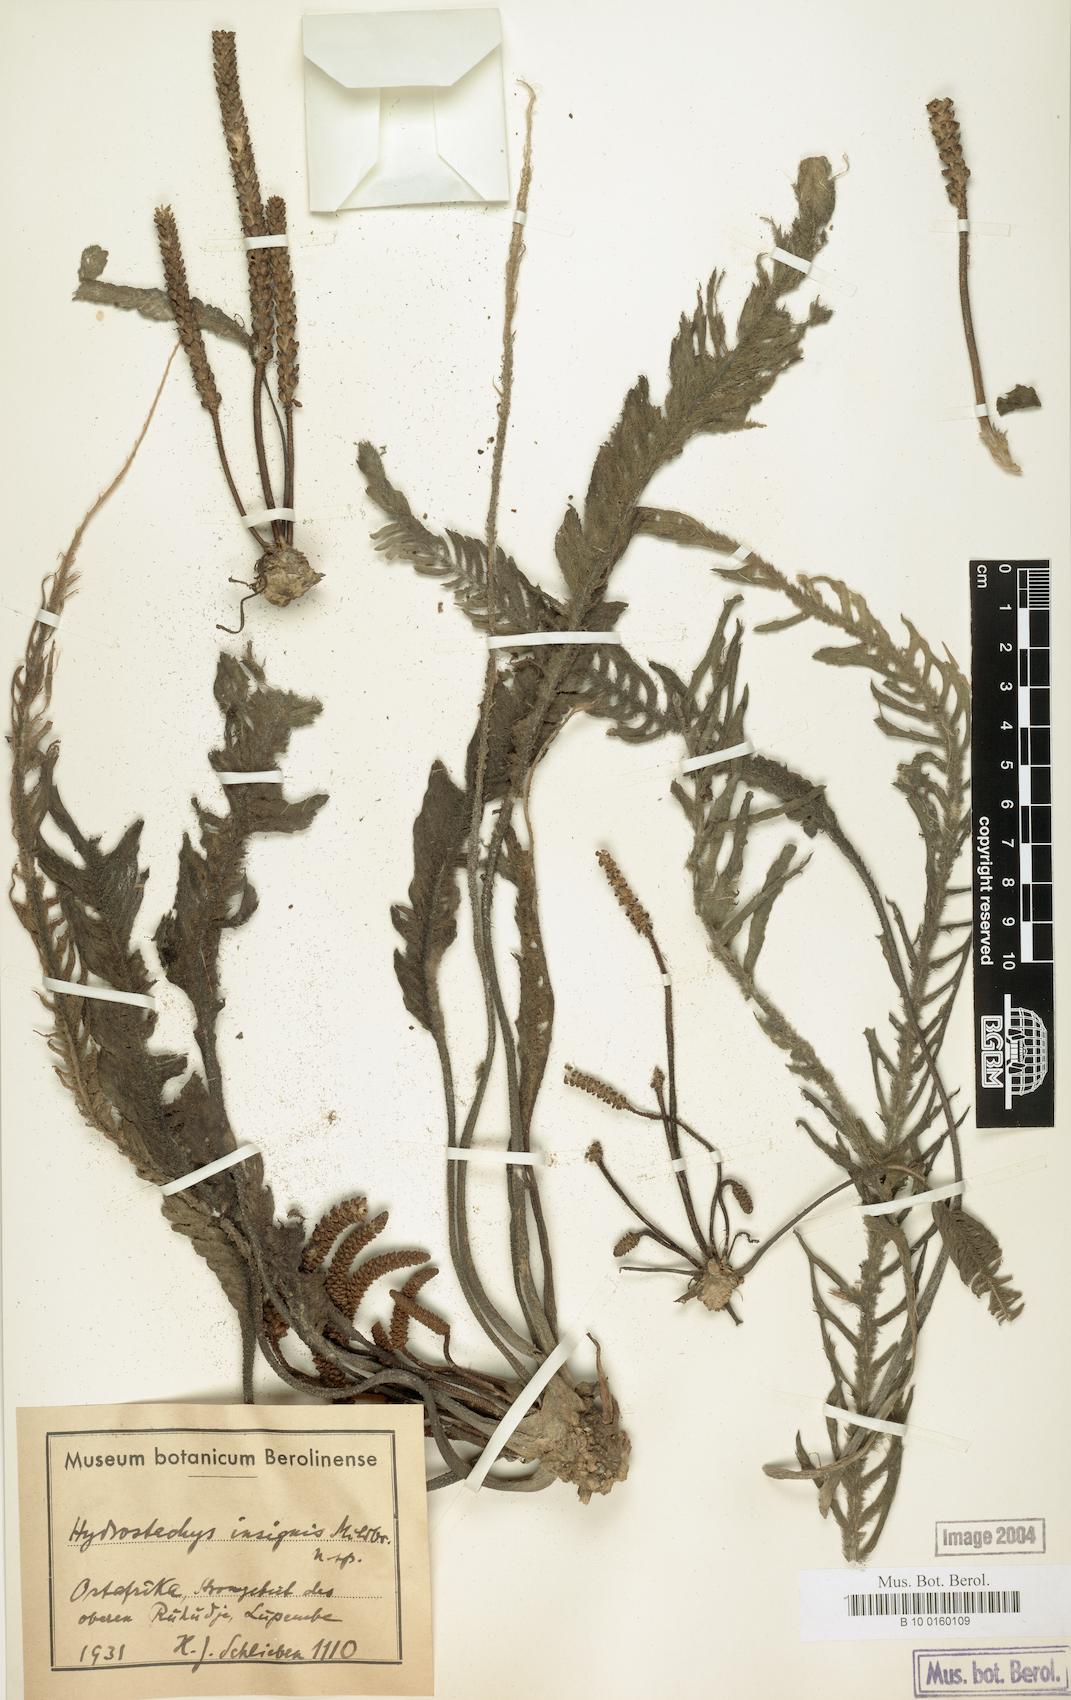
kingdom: Plantae
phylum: Tracheophyta
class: Magnoliopsida
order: Cornales
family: Hydrostachyaceae
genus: Hydrostachys
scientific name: Hydrostachys insignis
